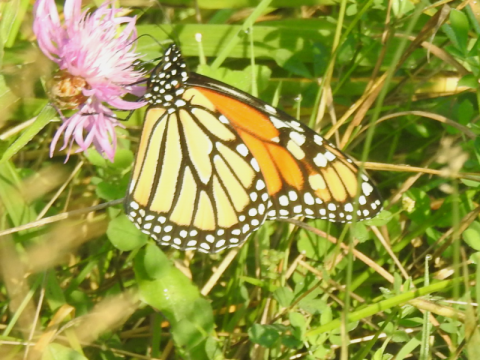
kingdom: Animalia
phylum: Arthropoda
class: Insecta
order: Lepidoptera
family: Nymphalidae
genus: Danaus
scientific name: Danaus plexippus
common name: Monarch
